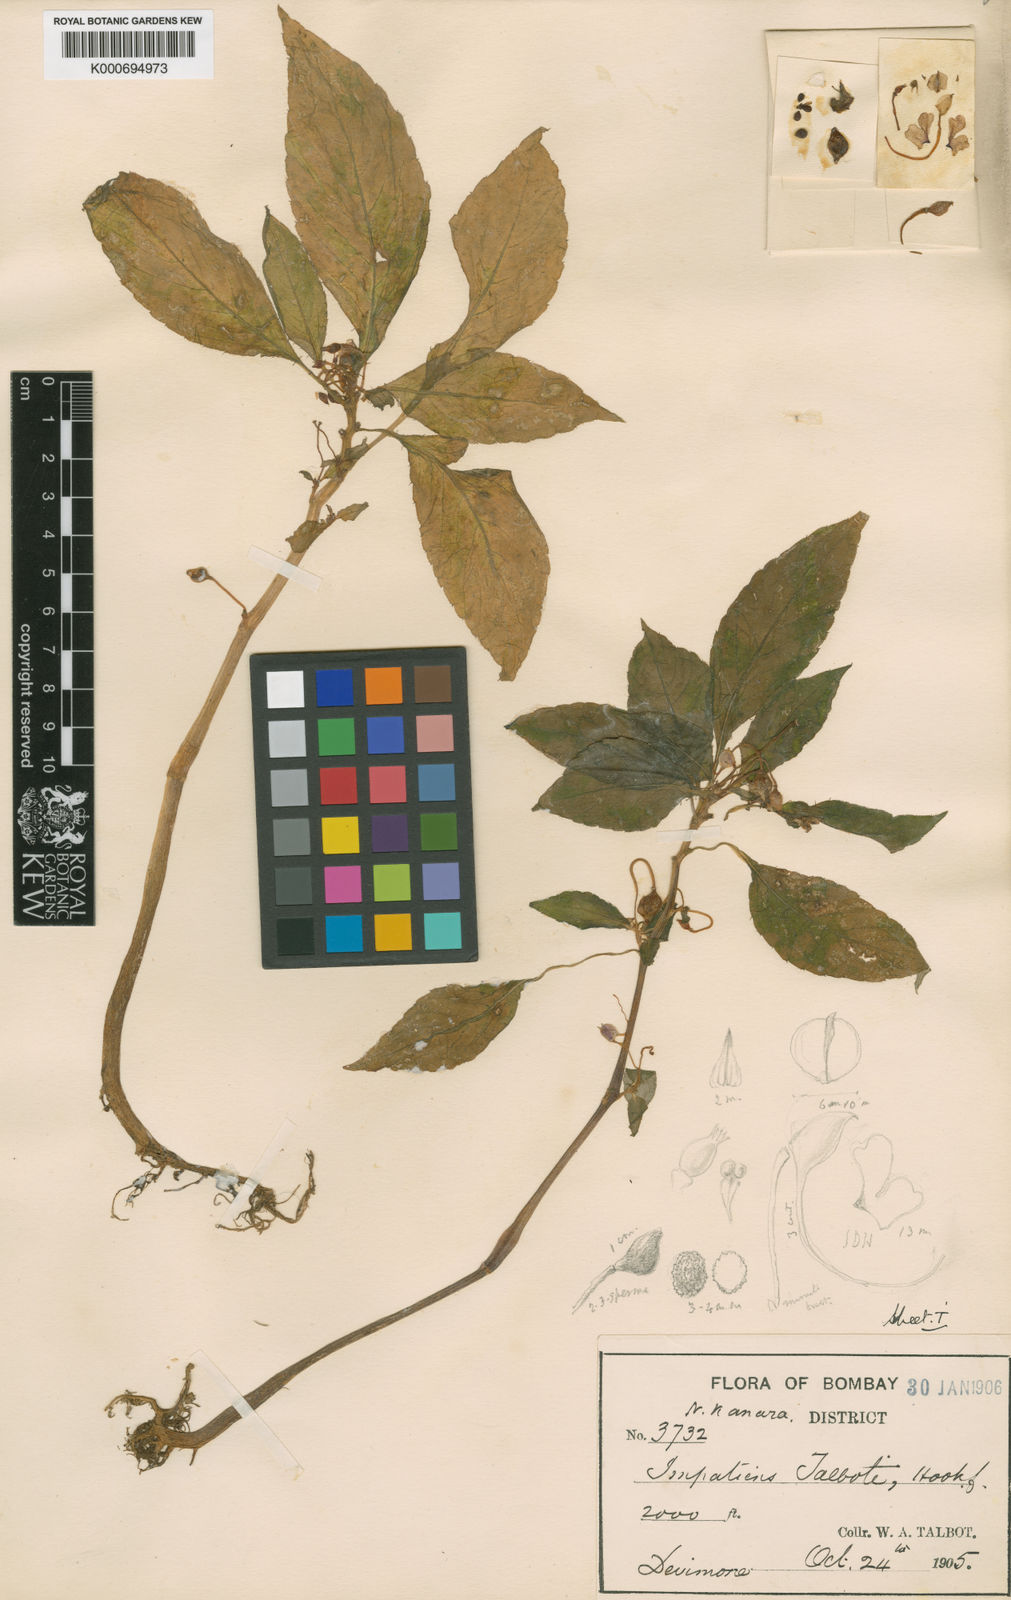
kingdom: Plantae
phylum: Tracheophyta
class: Magnoliopsida
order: Ericales
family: Balsaminaceae
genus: Impatiens
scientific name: Impatiens talbotii
